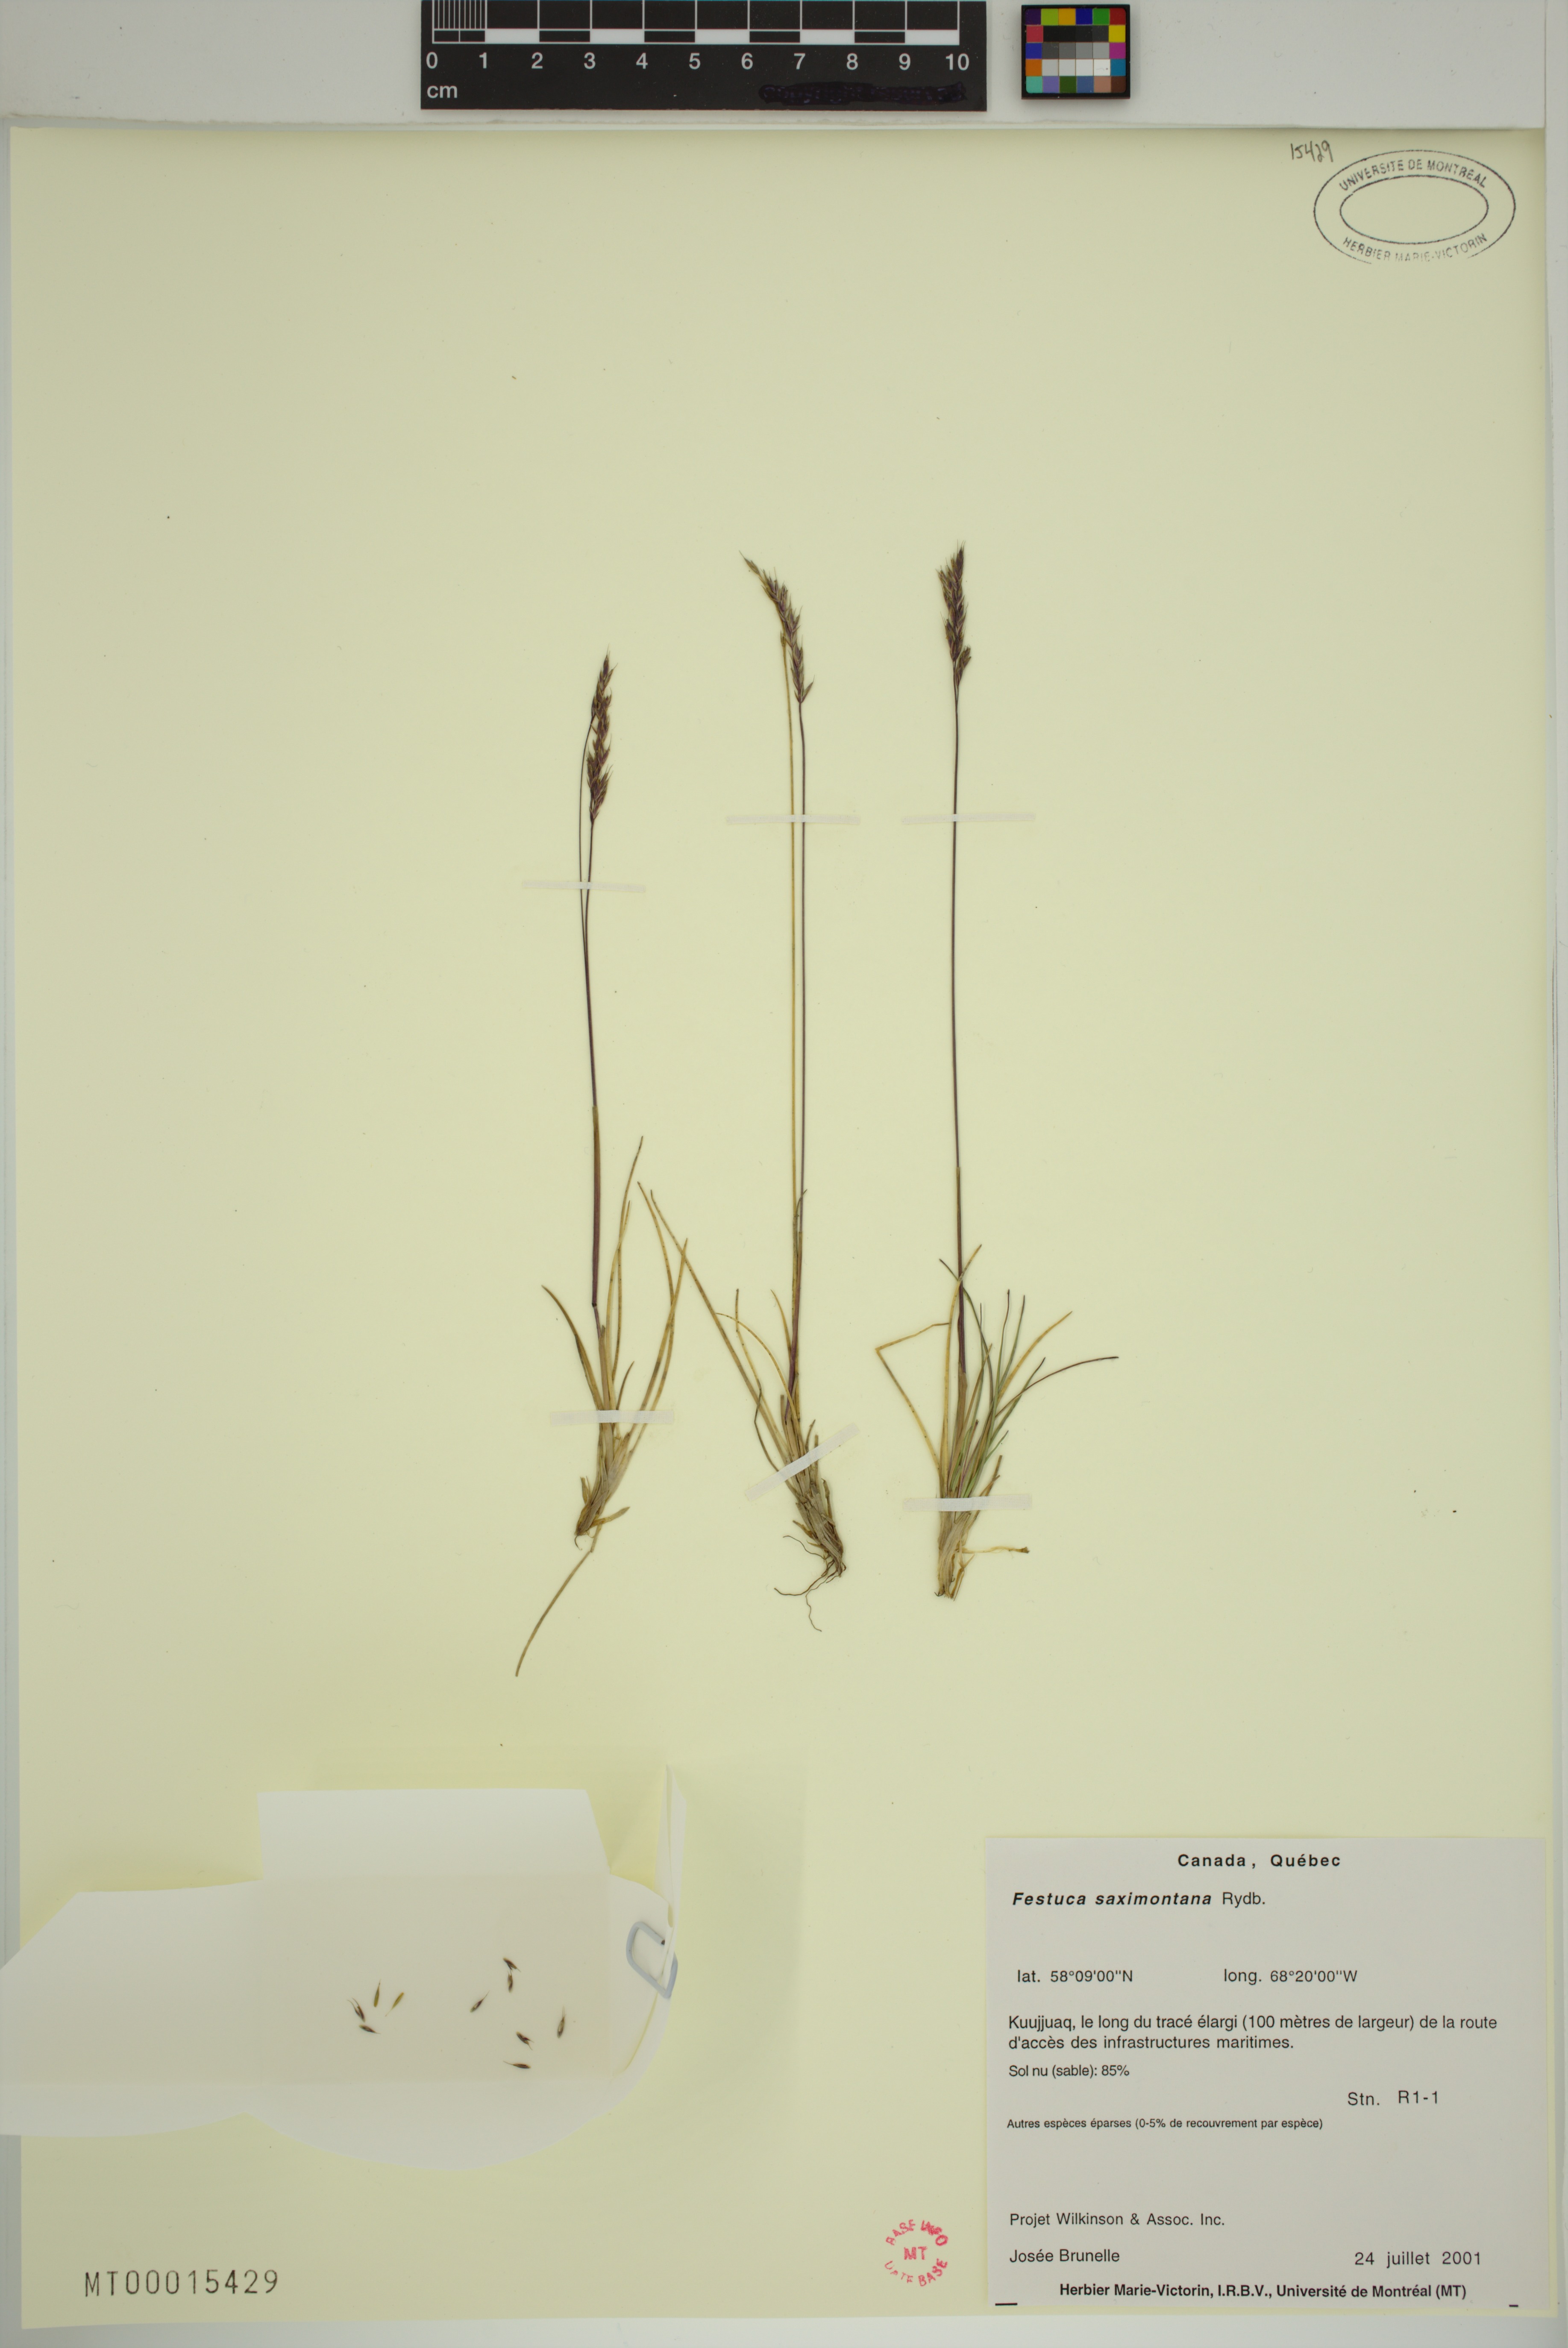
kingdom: Plantae
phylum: Tracheophyta
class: Liliopsida
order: Poales
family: Poaceae
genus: Festuca
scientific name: Festuca saximontana
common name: Mountain fescue
